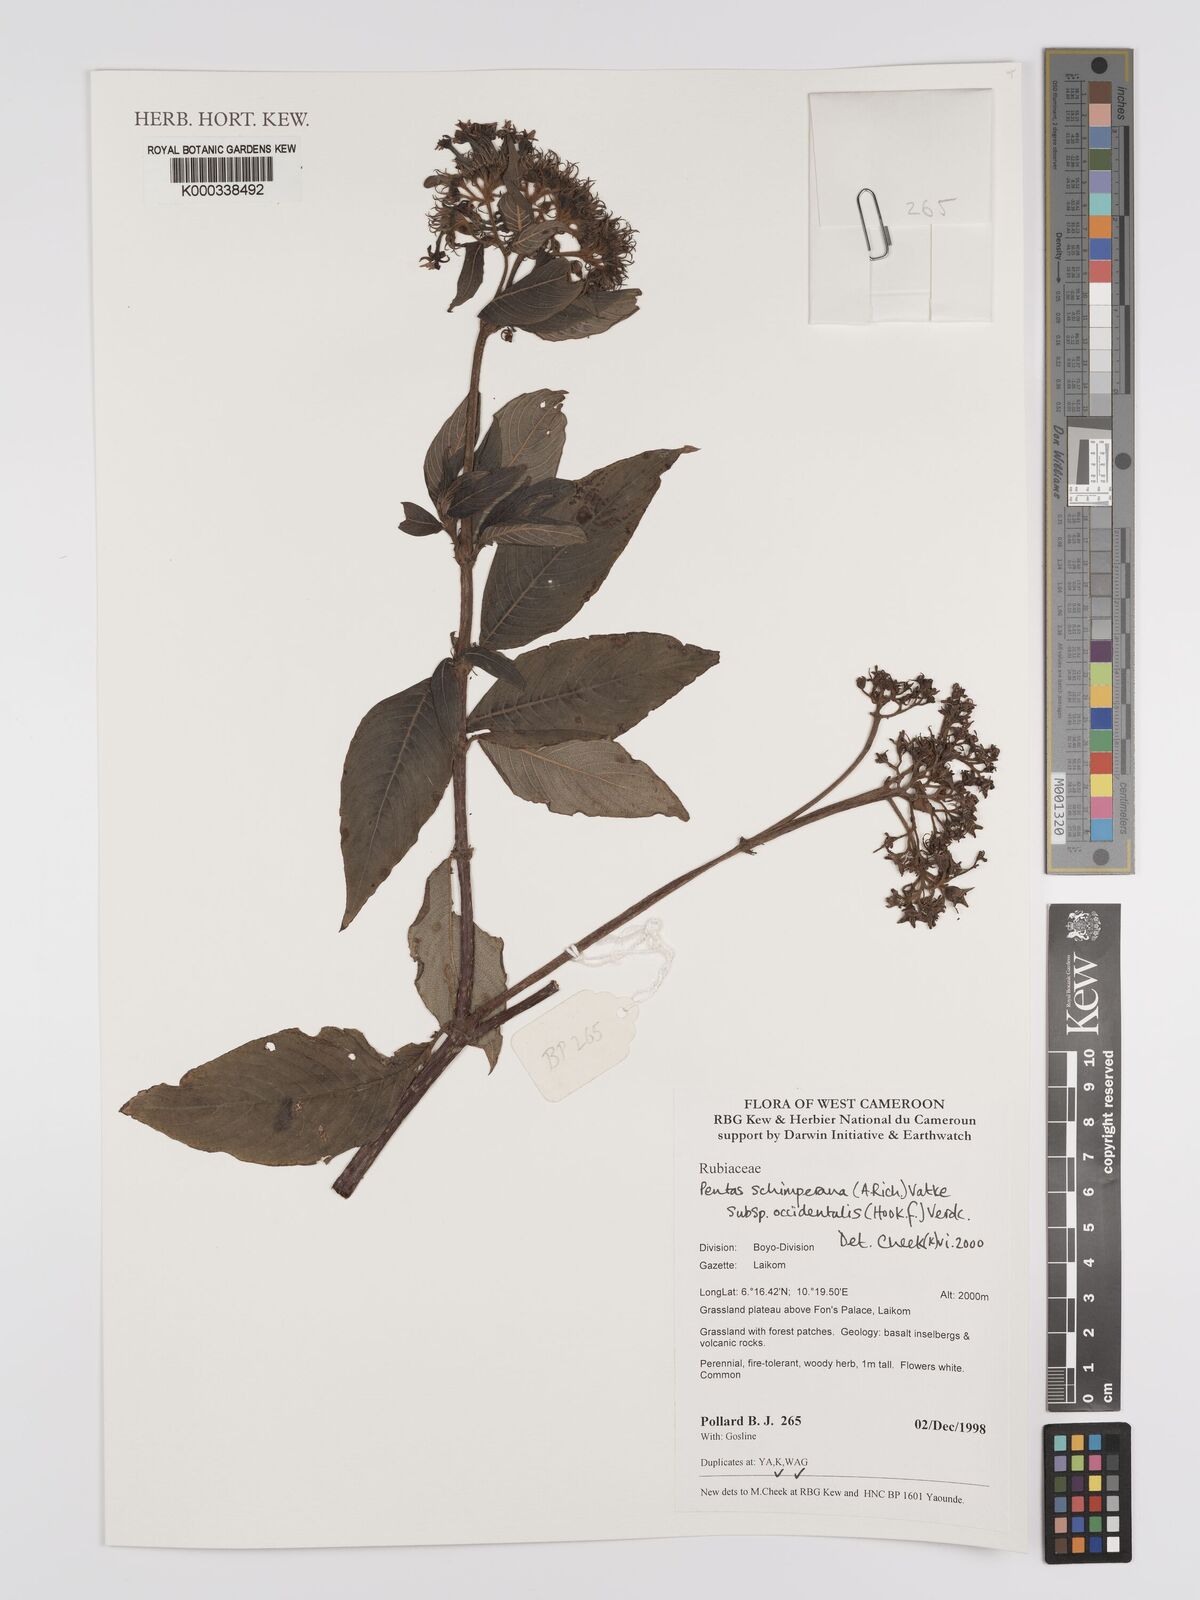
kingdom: Plantae
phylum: Tracheophyta
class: Magnoliopsida
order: Gentianales
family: Rubiaceae
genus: Phyllopentas
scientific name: Phyllopentas schimperi
